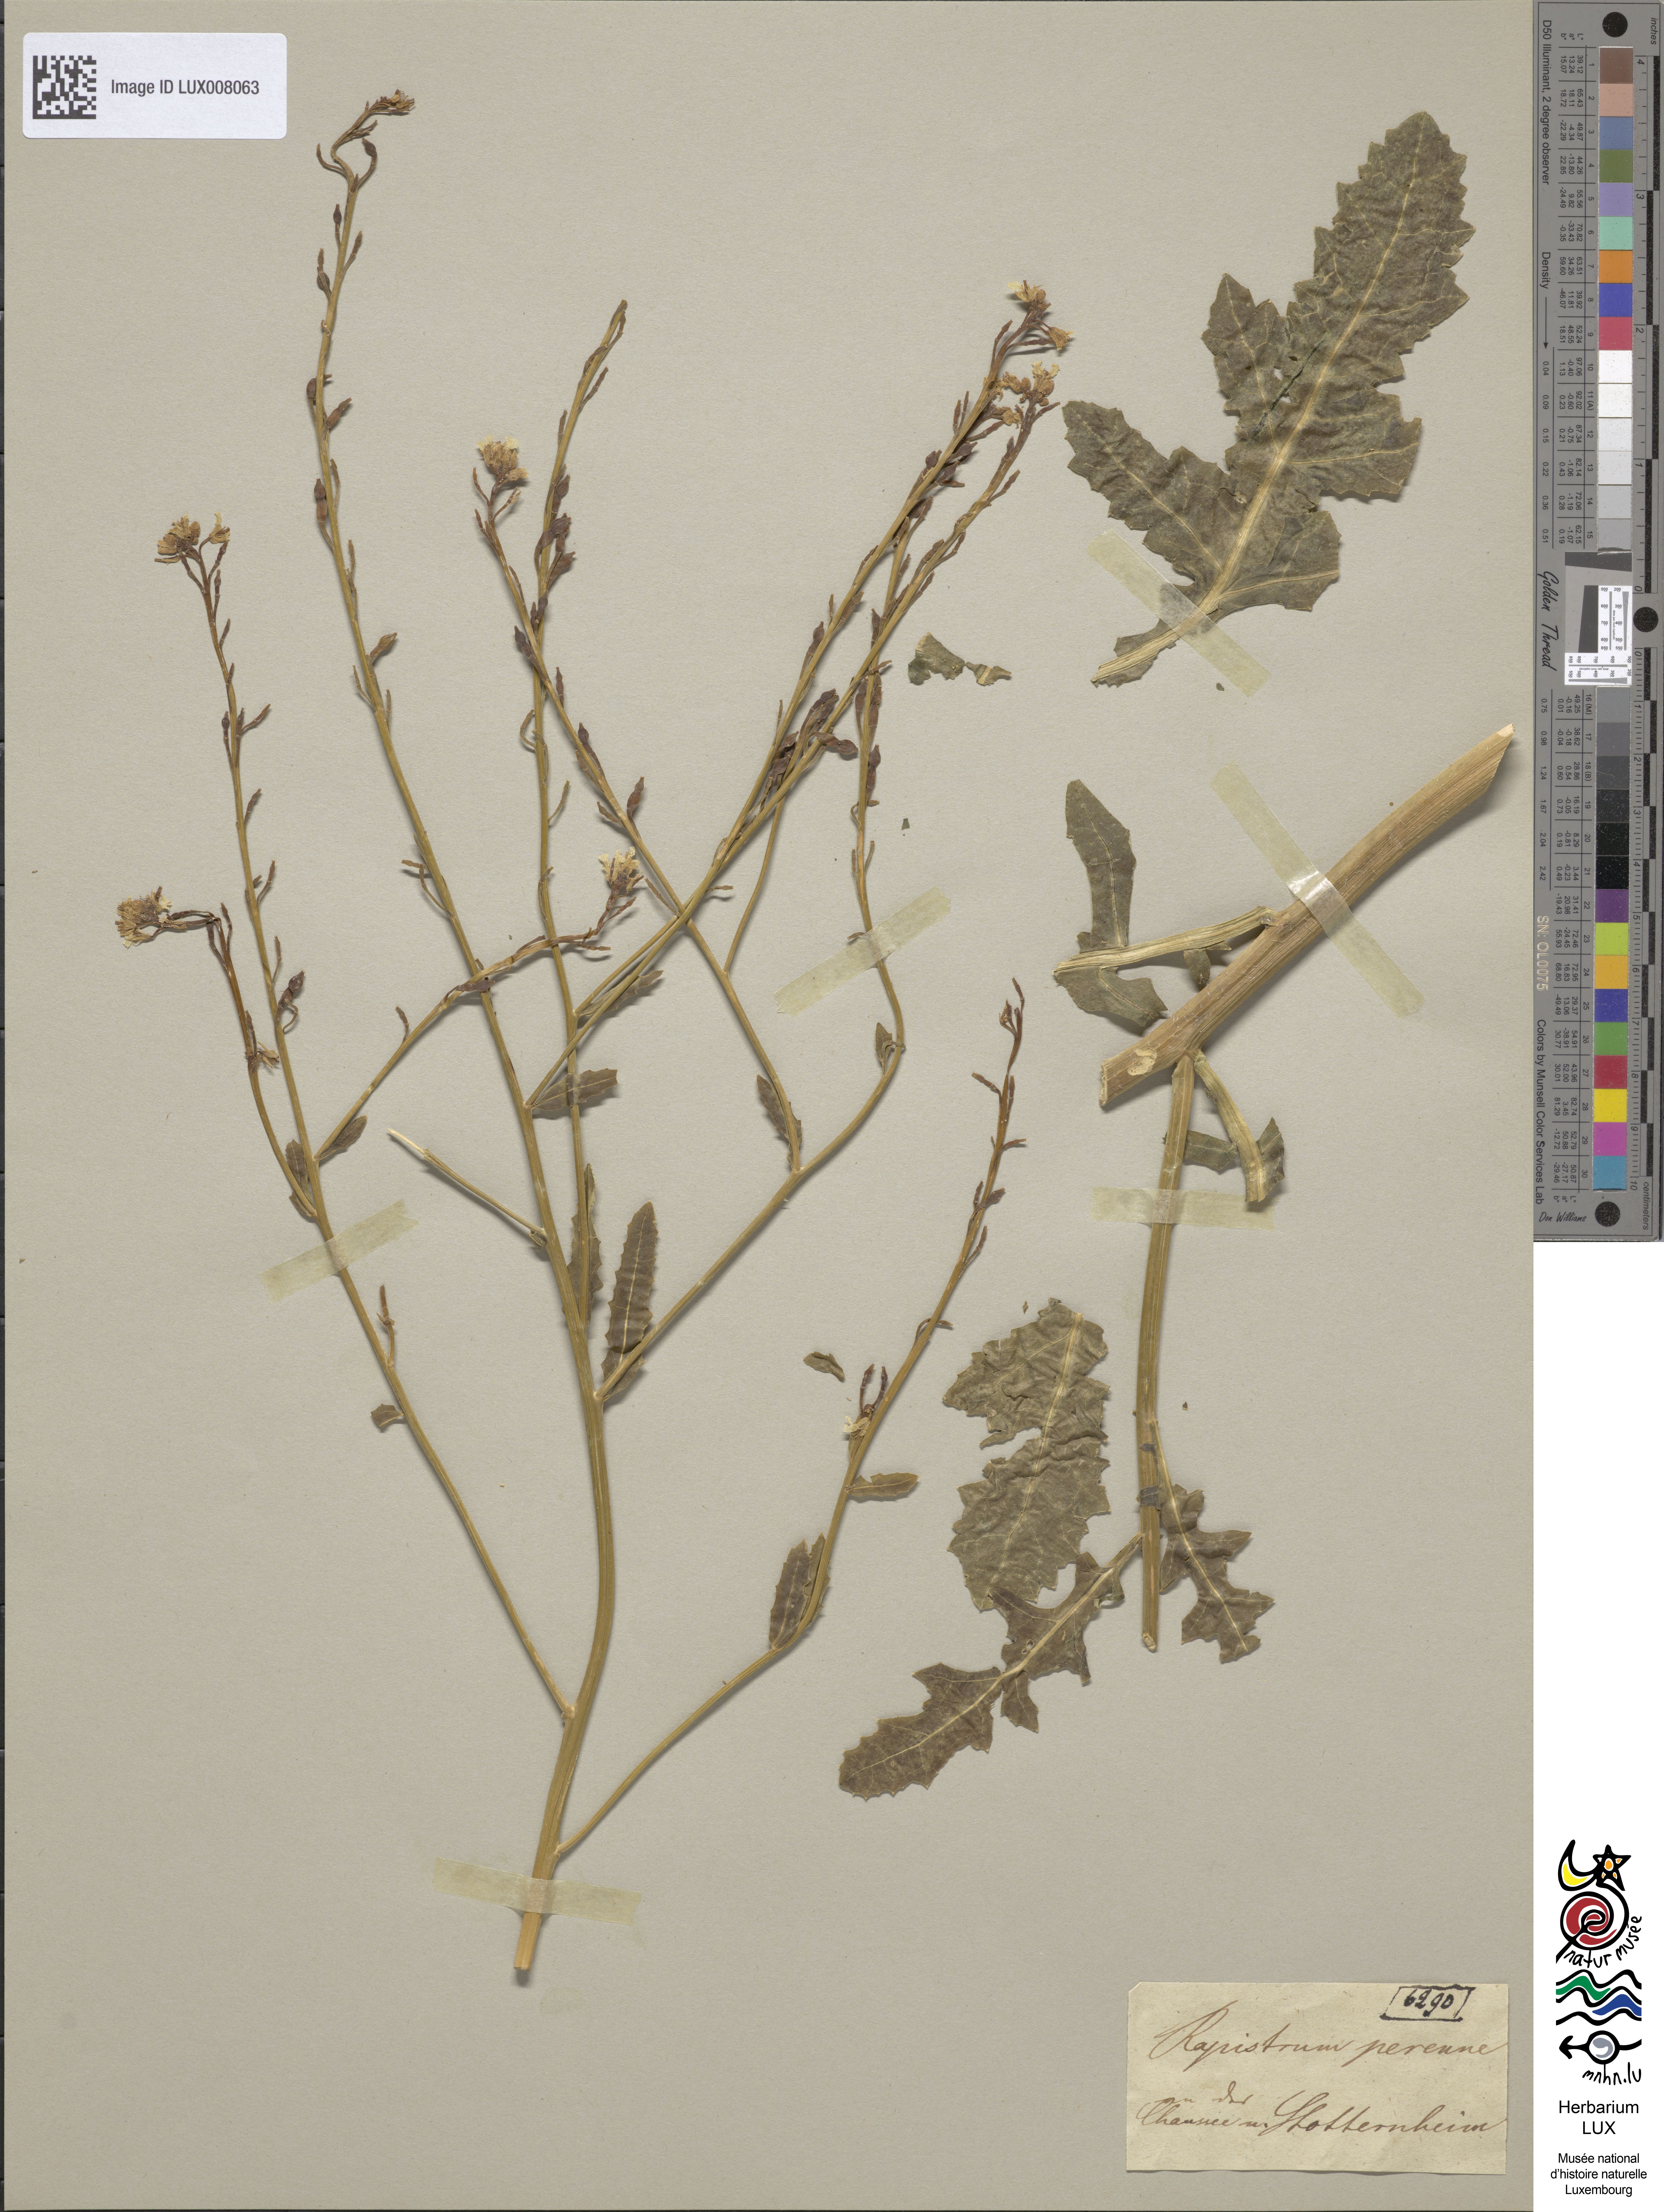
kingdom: Plantae
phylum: Tracheophyta
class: Magnoliopsida
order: Brassicales
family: Brassicaceae
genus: Rapistrum
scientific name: Rapistrum perenne
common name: Steppe cabbage
